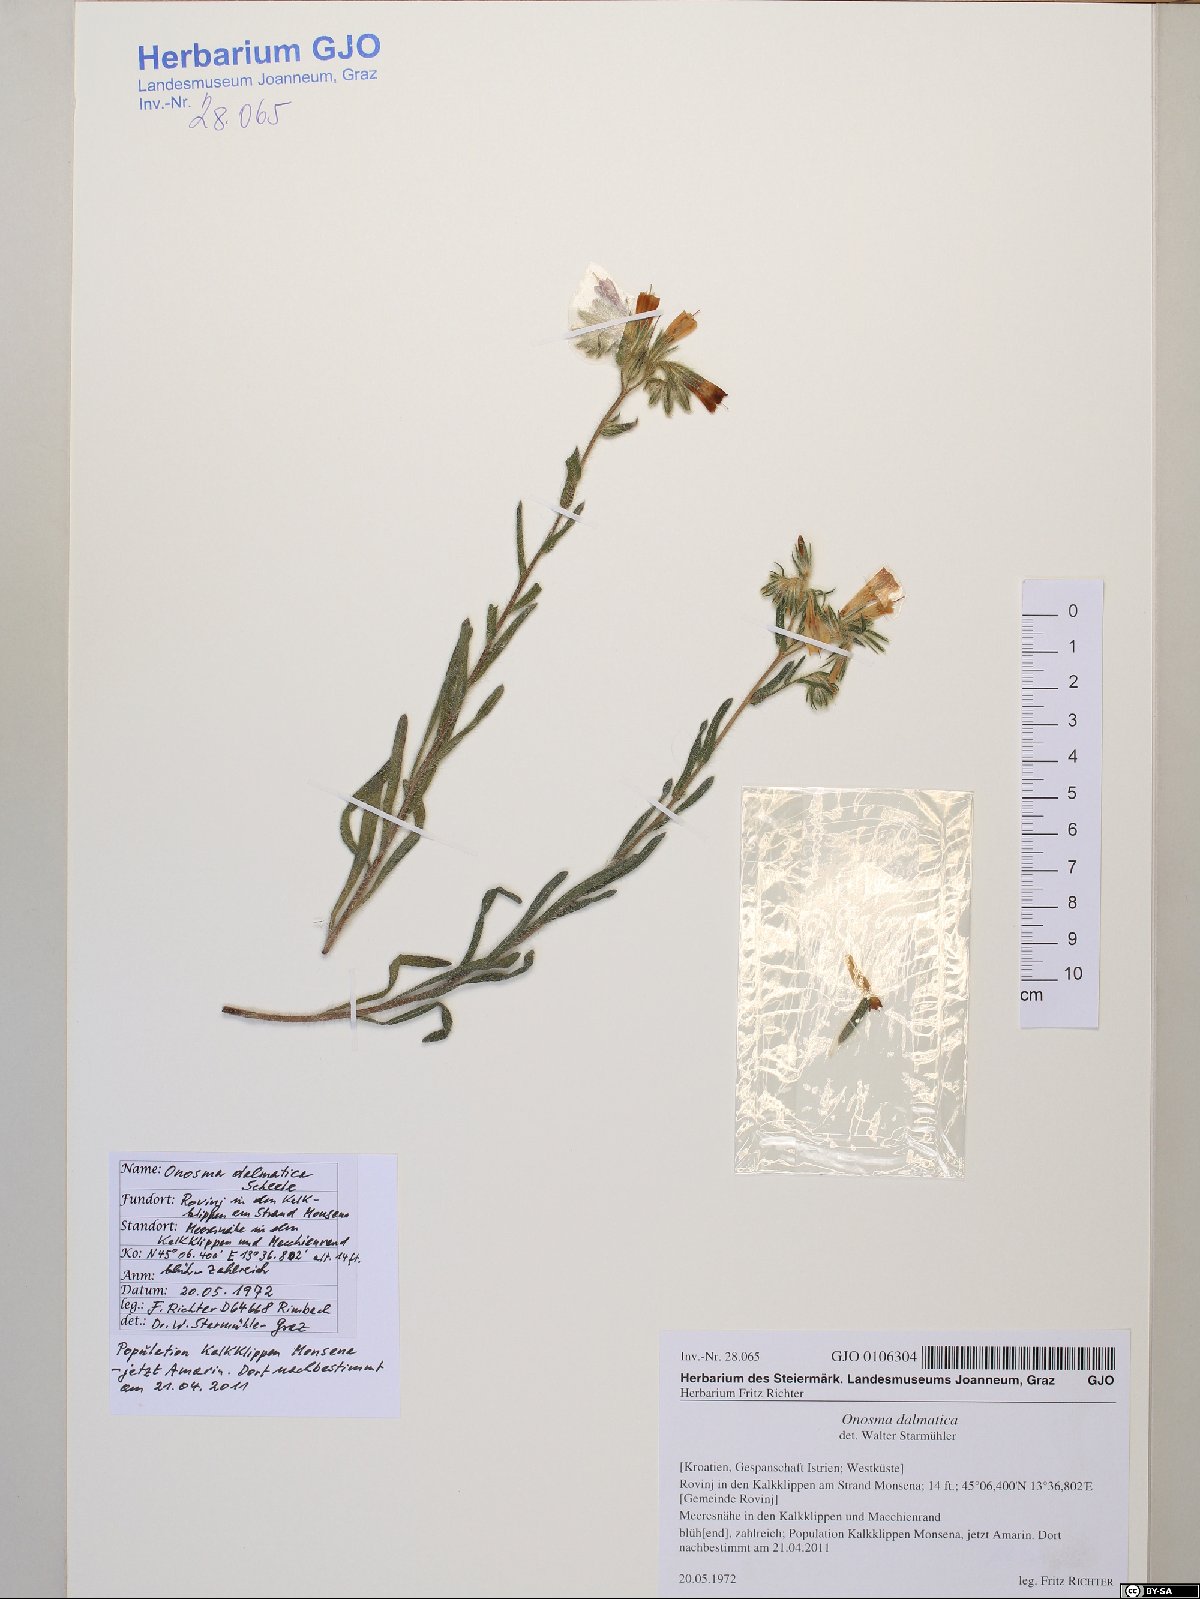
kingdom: Plantae
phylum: Tracheophyta
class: Magnoliopsida
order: Boraginales
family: Boraginaceae
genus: Onosma
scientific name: Onosma pseudoarenaria
